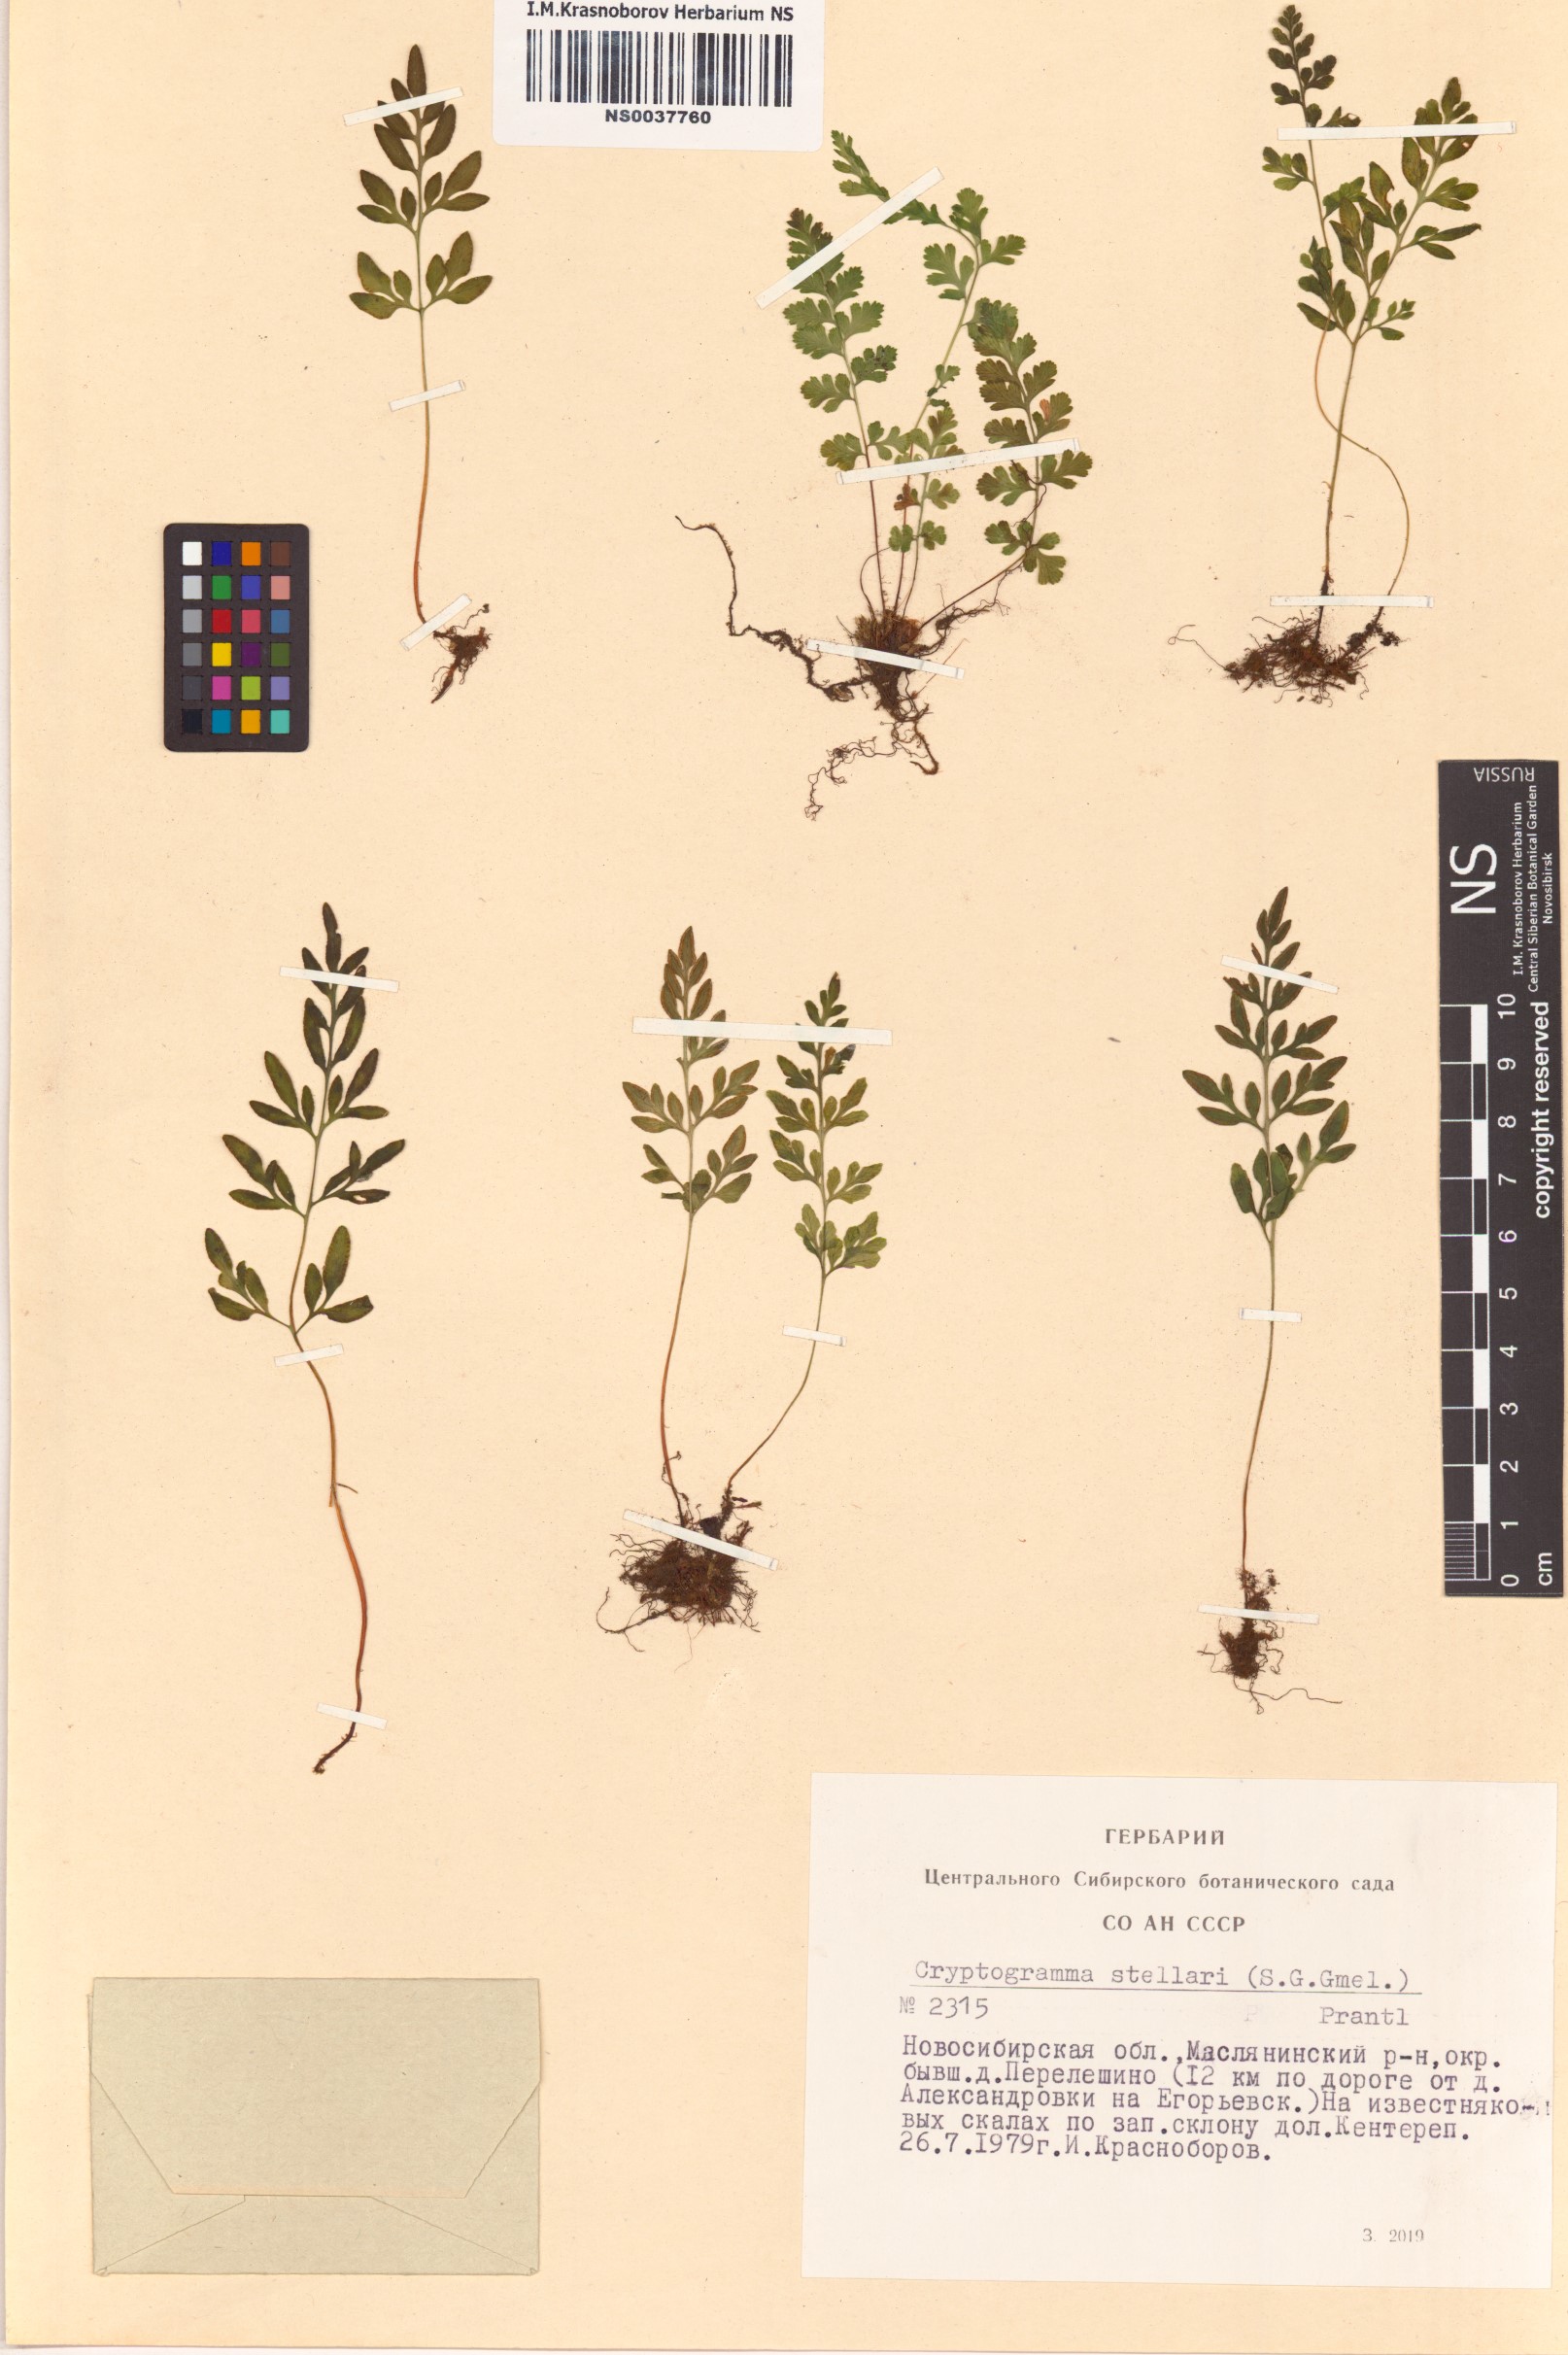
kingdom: Plantae
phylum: Tracheophyta
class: Polypodiopsida
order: Polypodiales
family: Pteridaceae
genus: Cryptogramma
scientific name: Cryptogramma stelleri
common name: Cliff-brake
